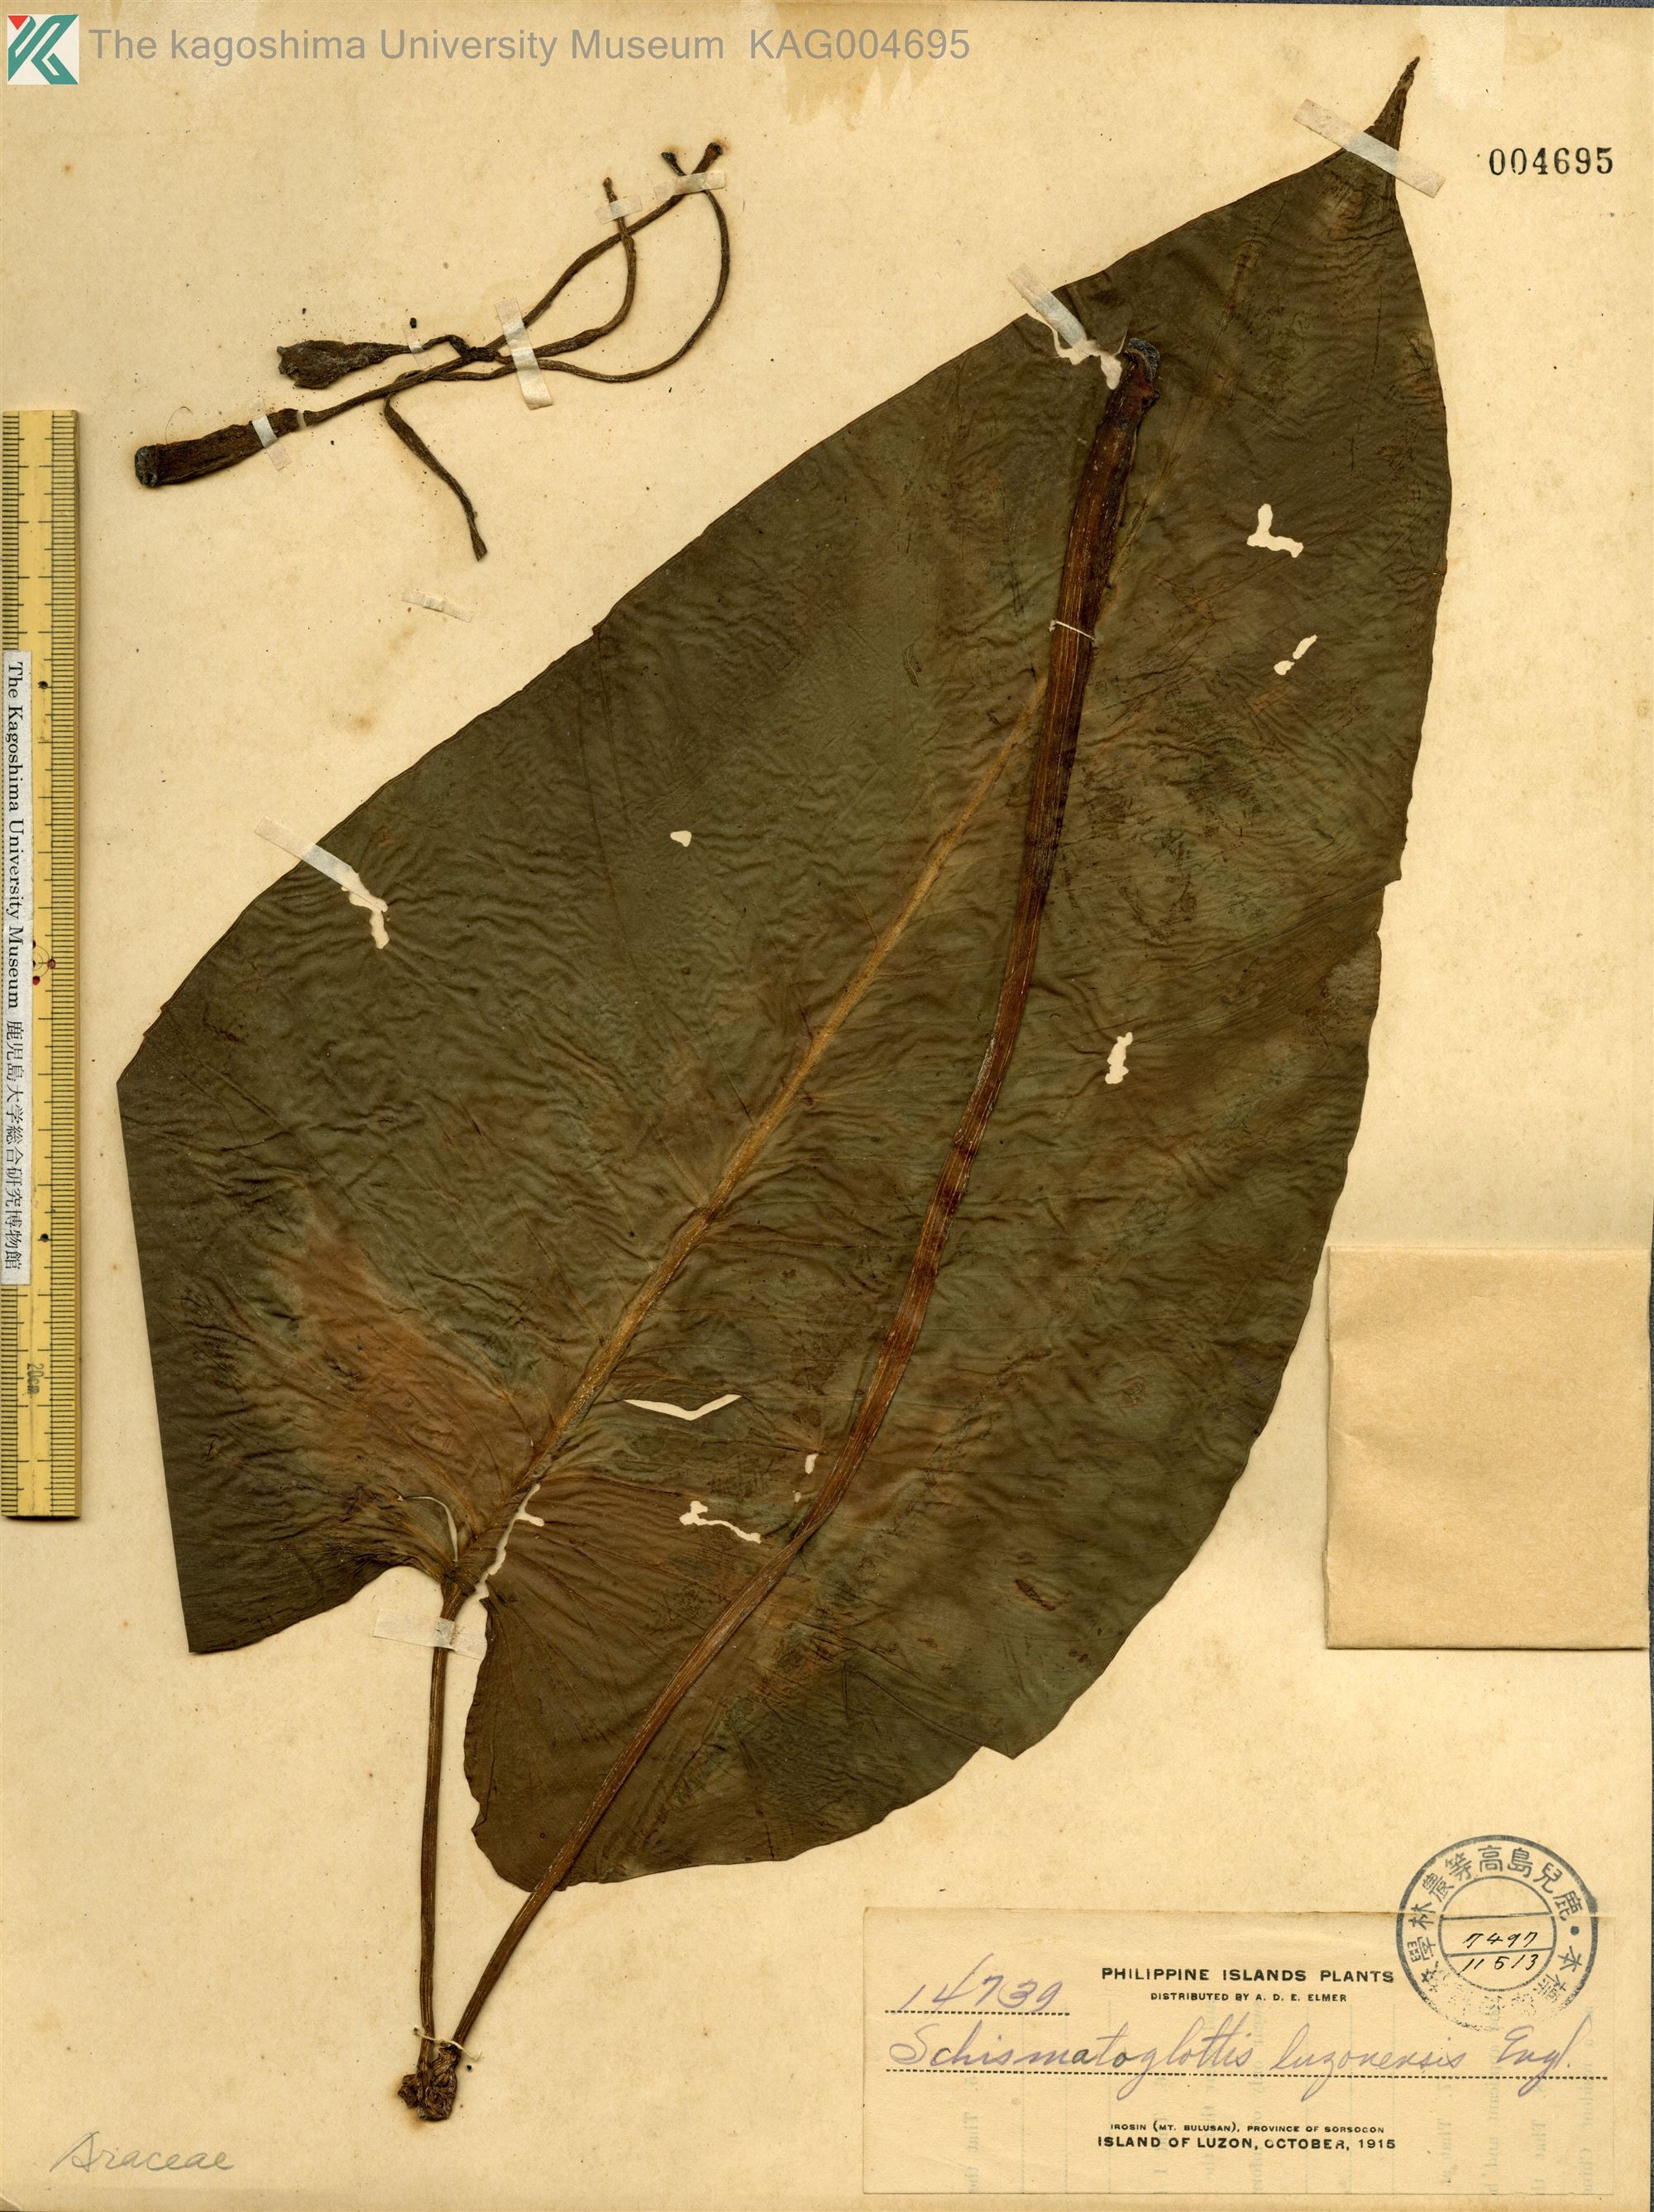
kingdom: Plantae
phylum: Tracheophyta
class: Liliopsida
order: Alismatales
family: Araceae
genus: Schismatoglottis
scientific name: Schismatoglottis luzonensis
